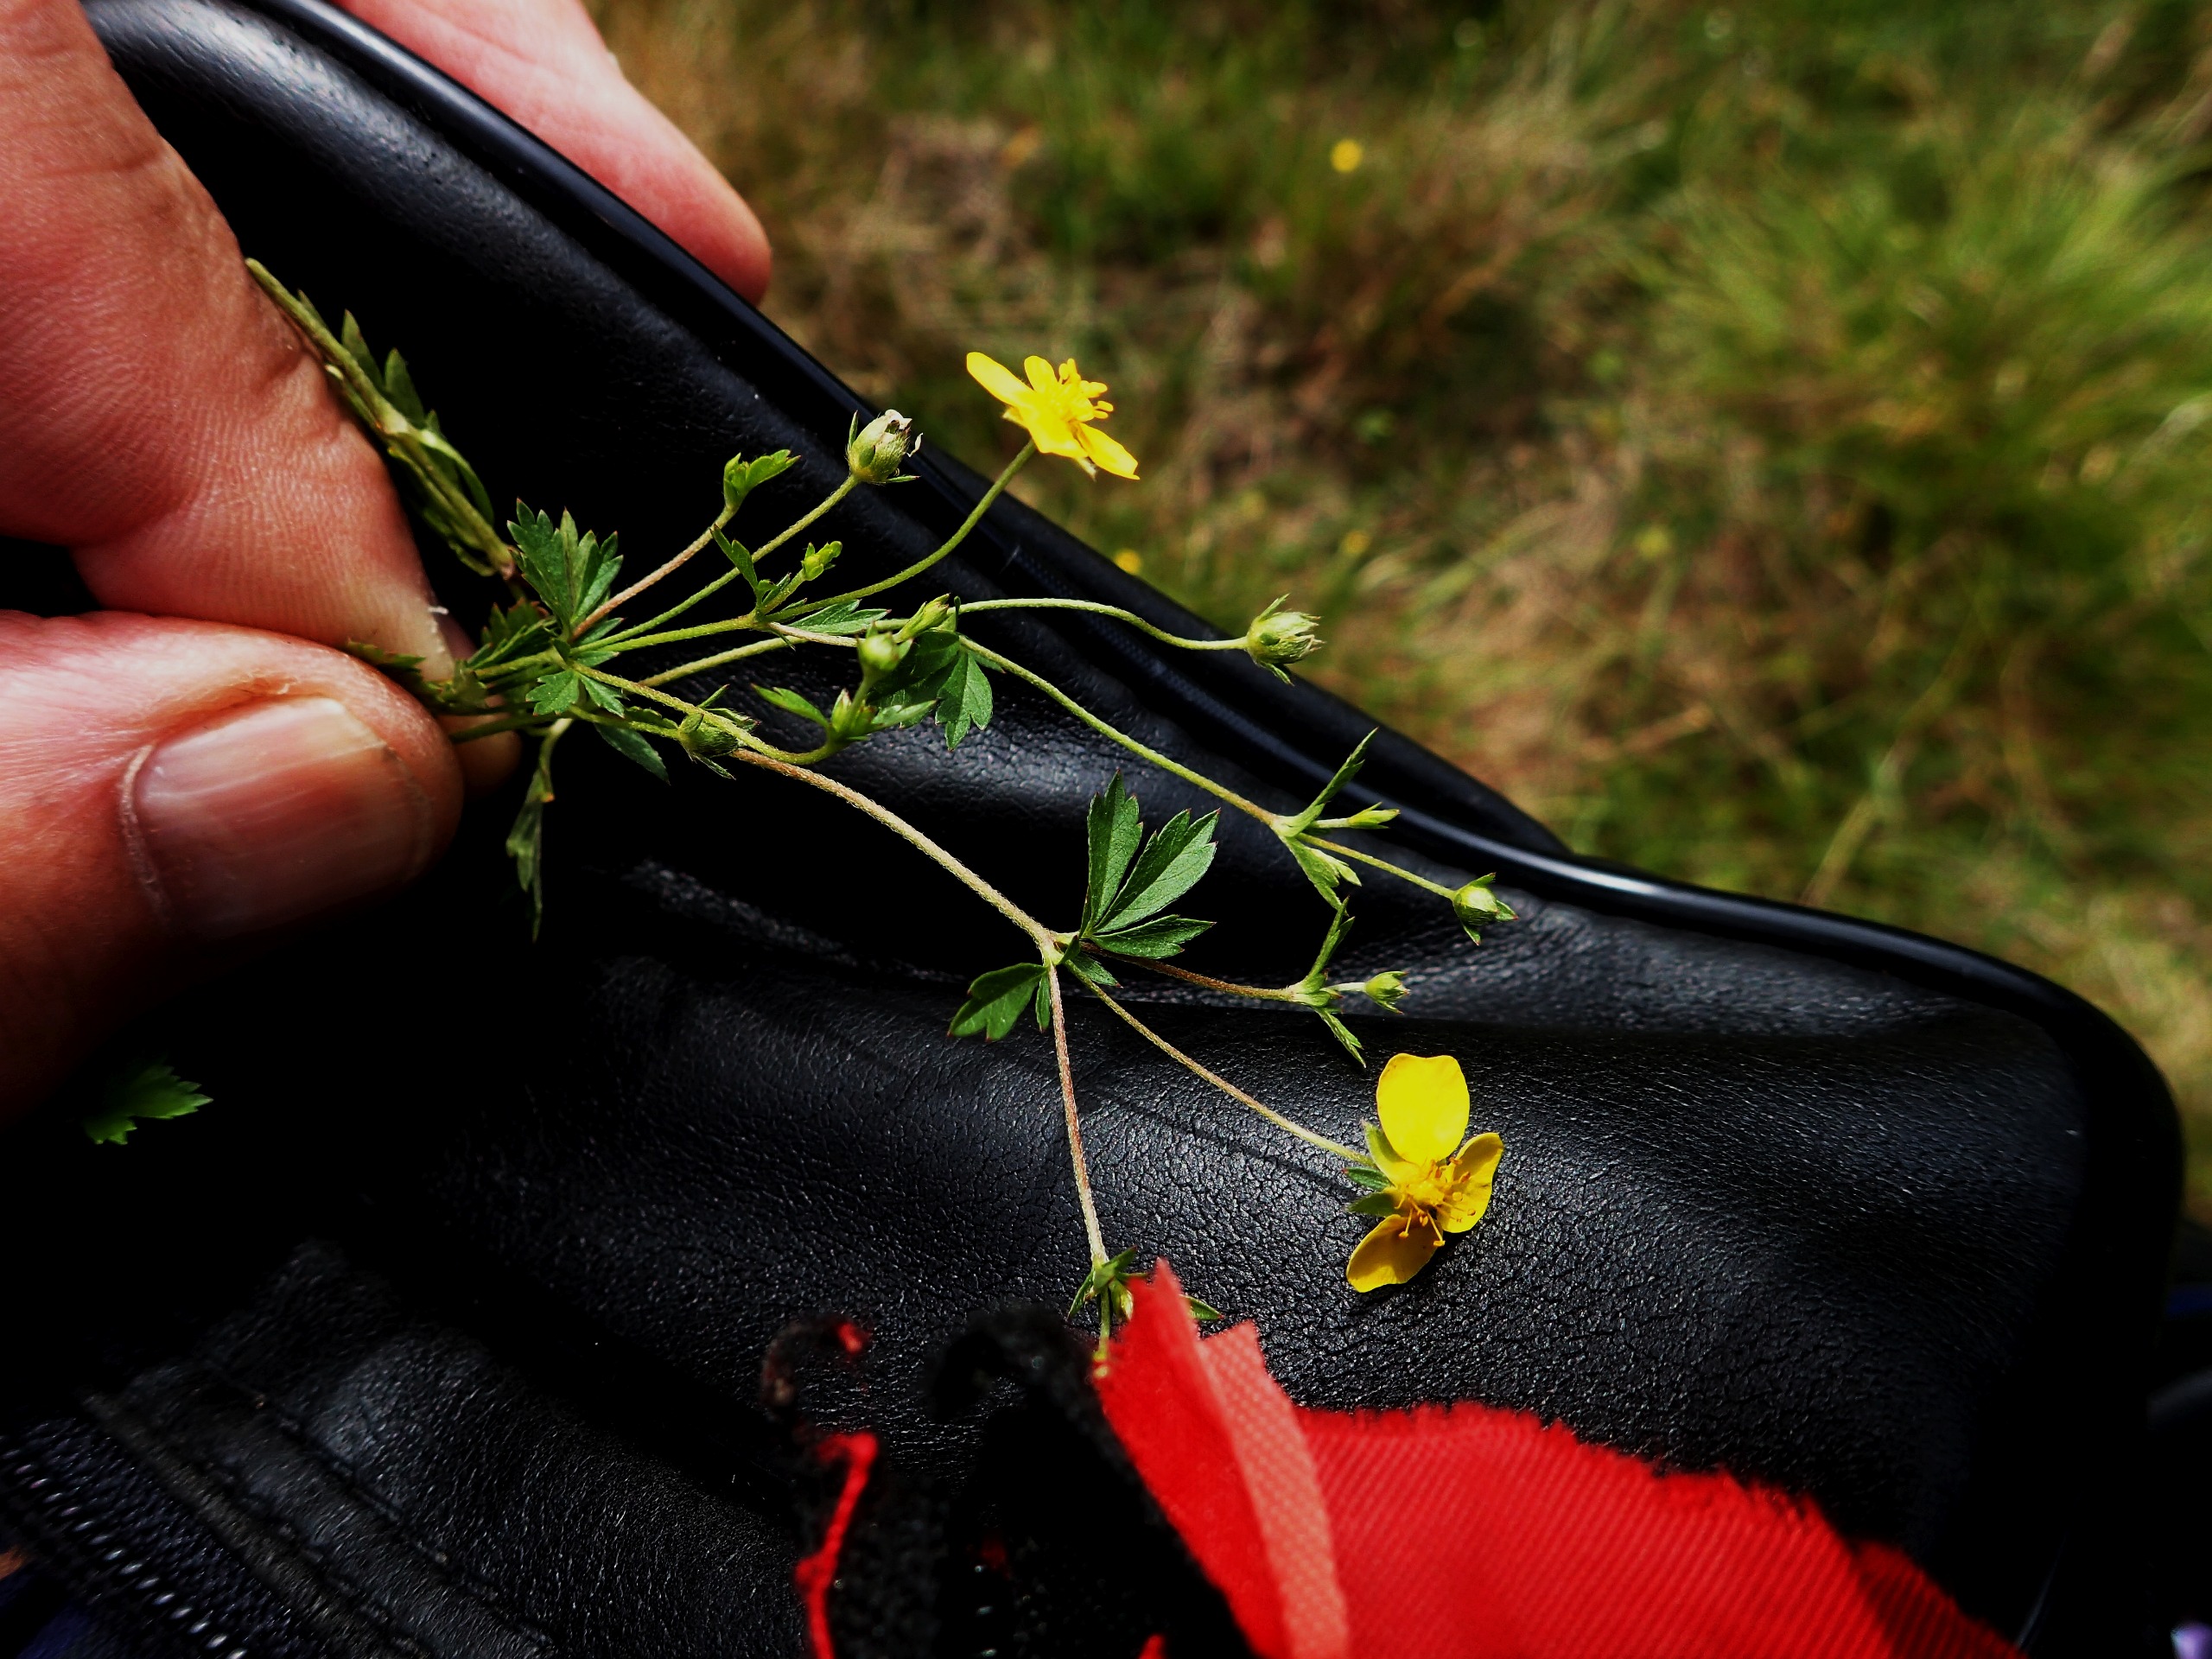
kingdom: Plantae
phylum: Tracheophyta
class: Magnoliopsida
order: Rosales
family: Rosaceae
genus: Potentilla
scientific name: Potentilla erecta
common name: Tormentil
